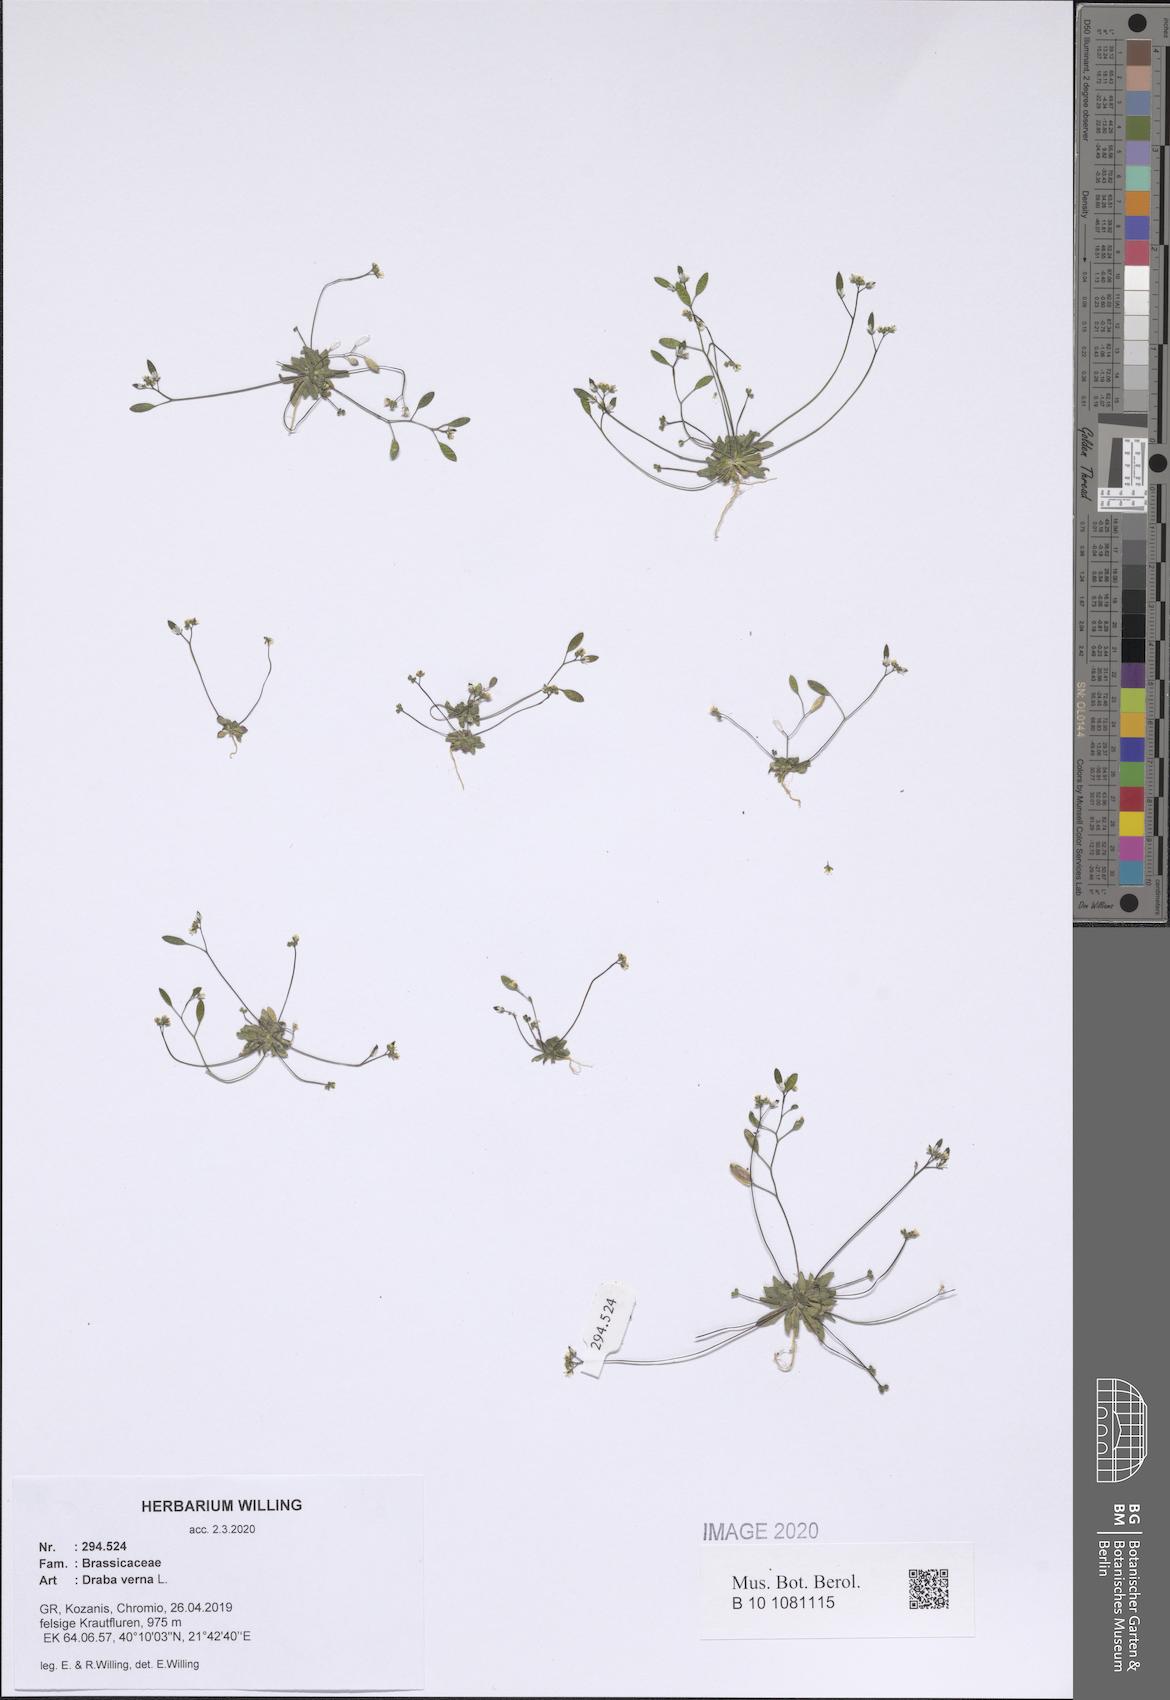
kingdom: Plantae
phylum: Tracheophyta
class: Magnoliopsida
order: Brassicales
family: Brassicaceae
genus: Draba
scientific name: Draba verna
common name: Spring draba
